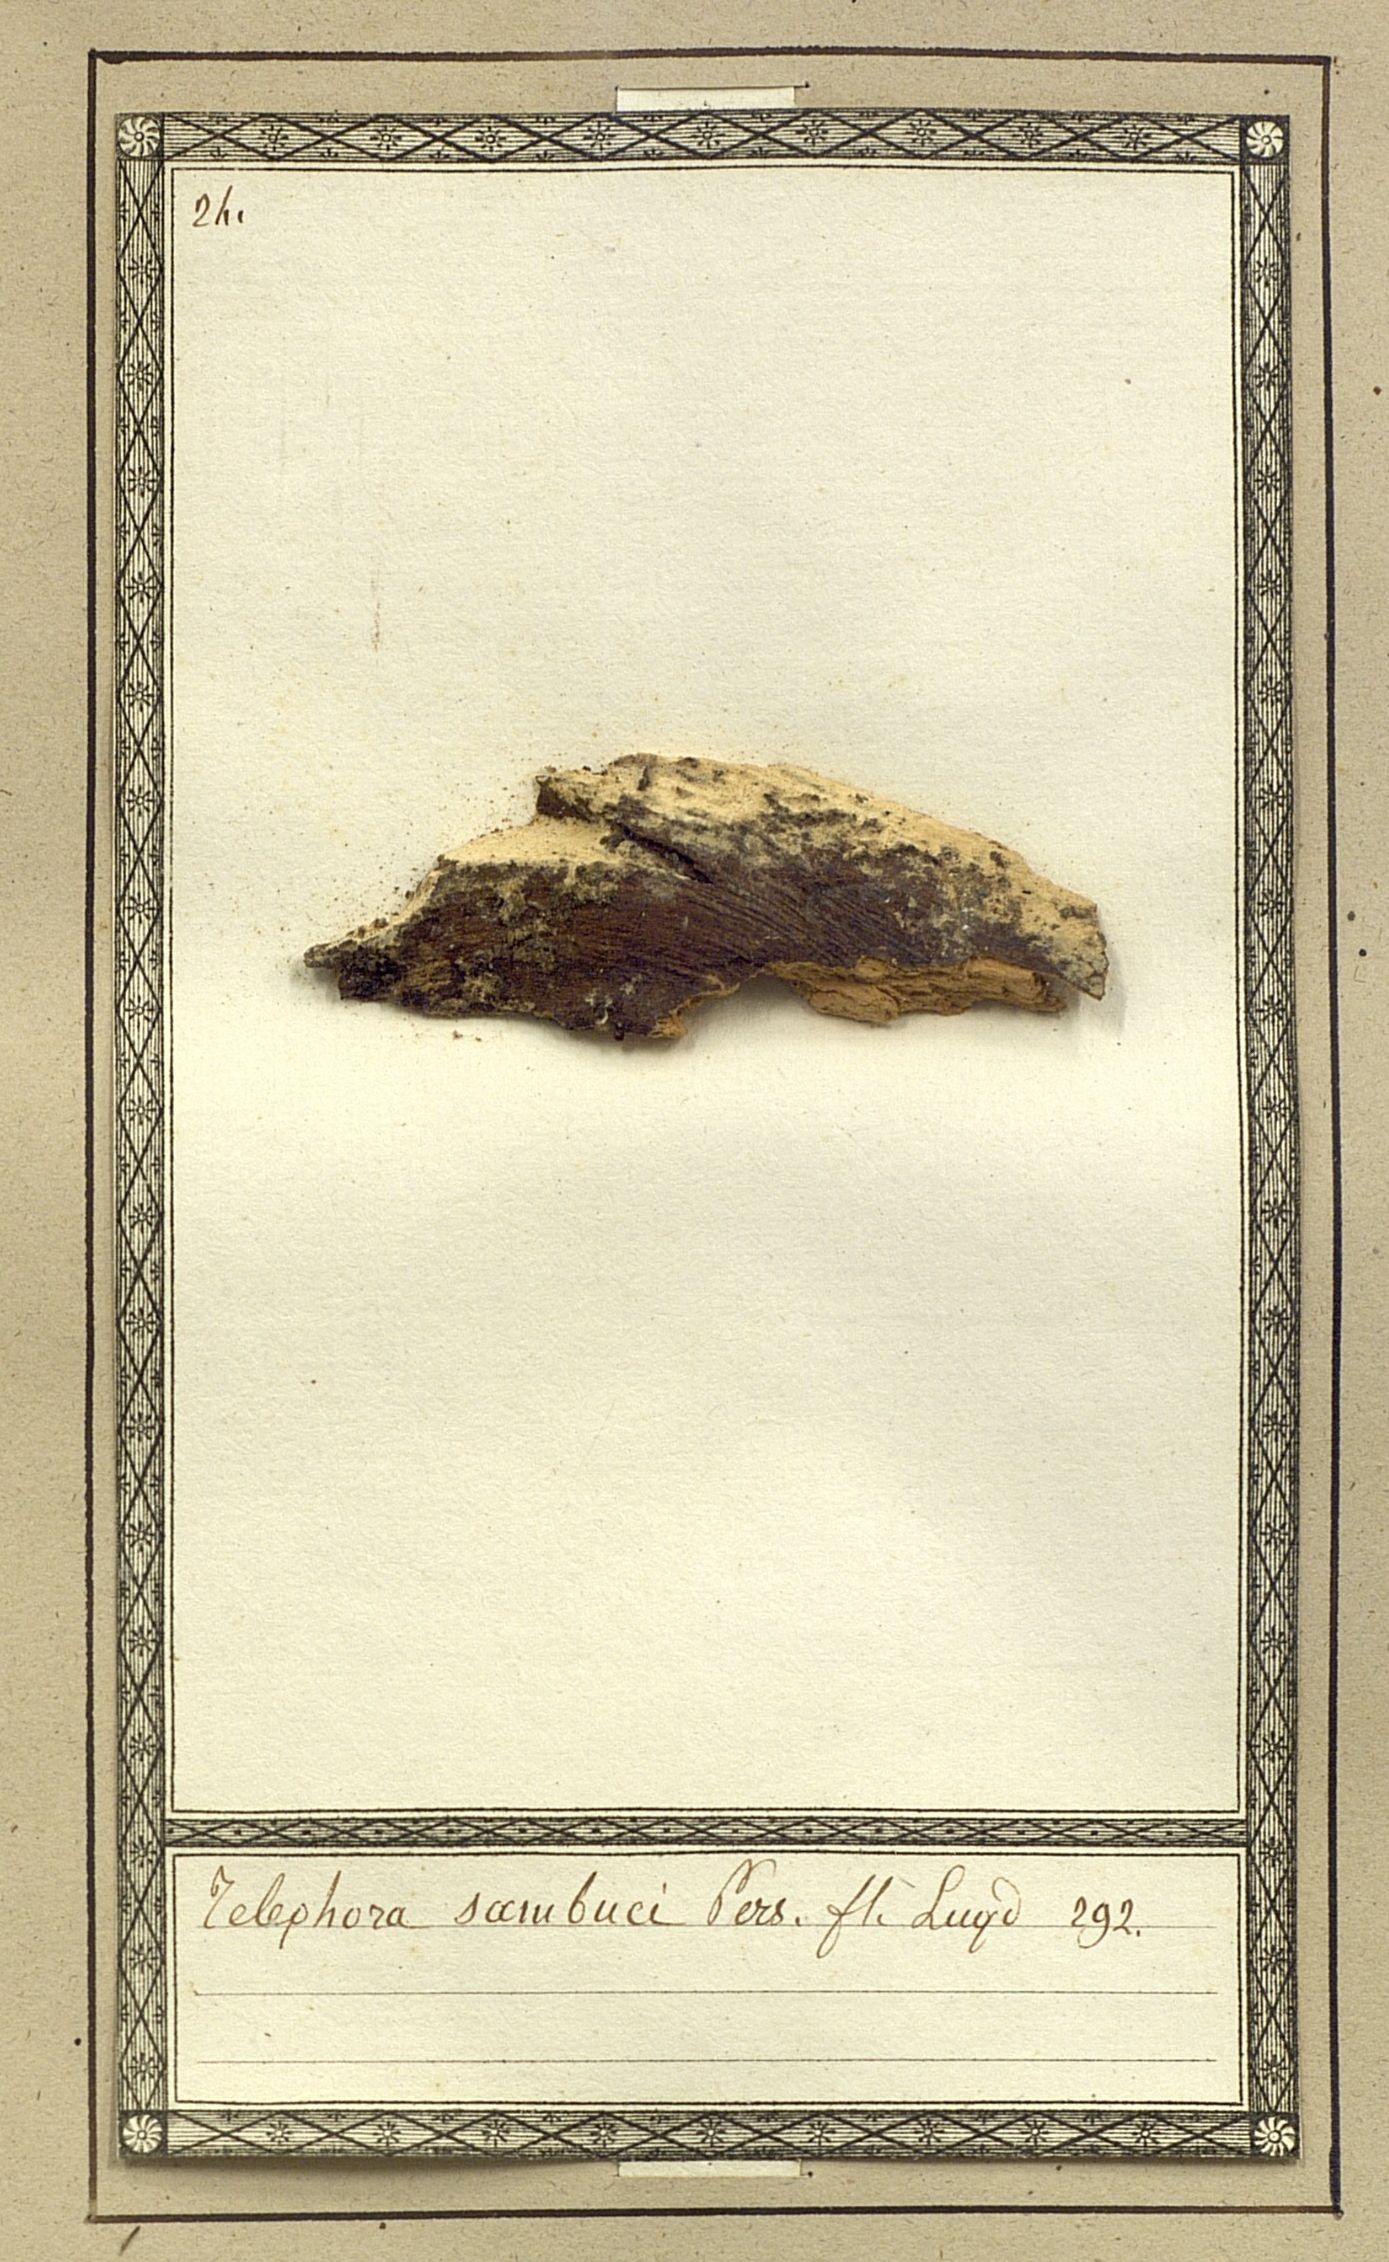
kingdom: Fungi
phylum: Basidiomycota
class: Agaricomycetes
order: Thelephorales
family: Thelephoraceae
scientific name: Thelephoraceae
